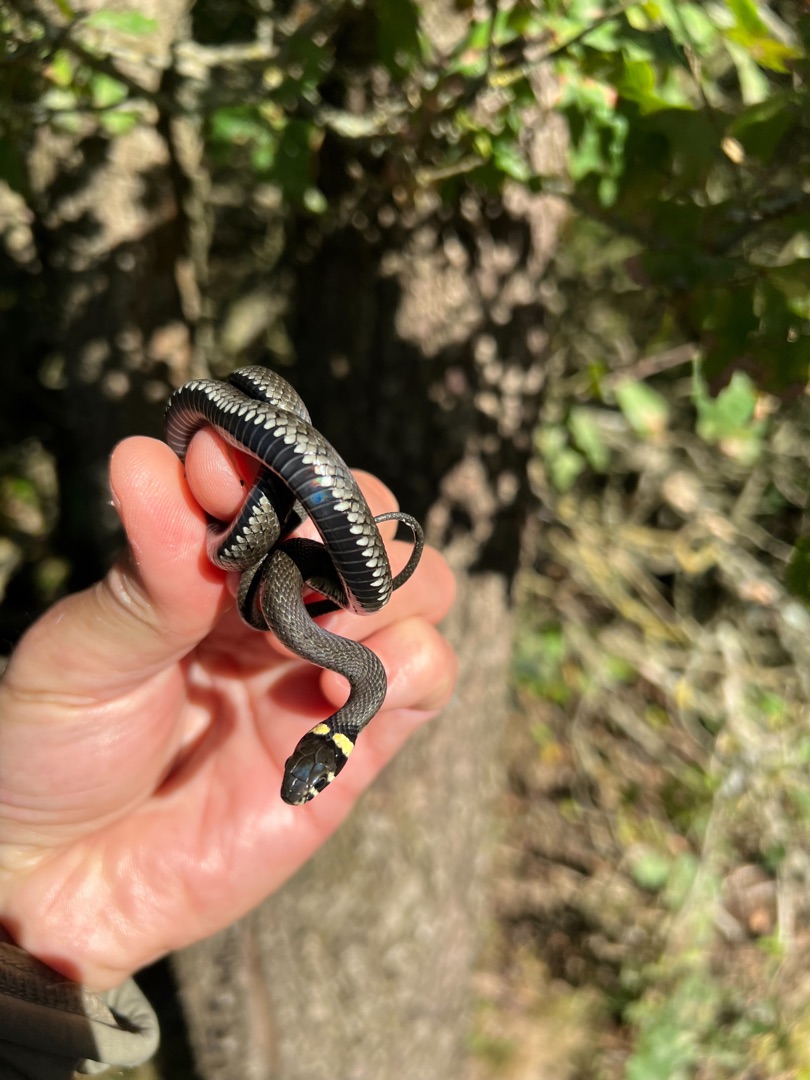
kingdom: Animalia
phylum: Chordata
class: Squamata
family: Colubridae
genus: Natrix
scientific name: Natrix natrix
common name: Snog
